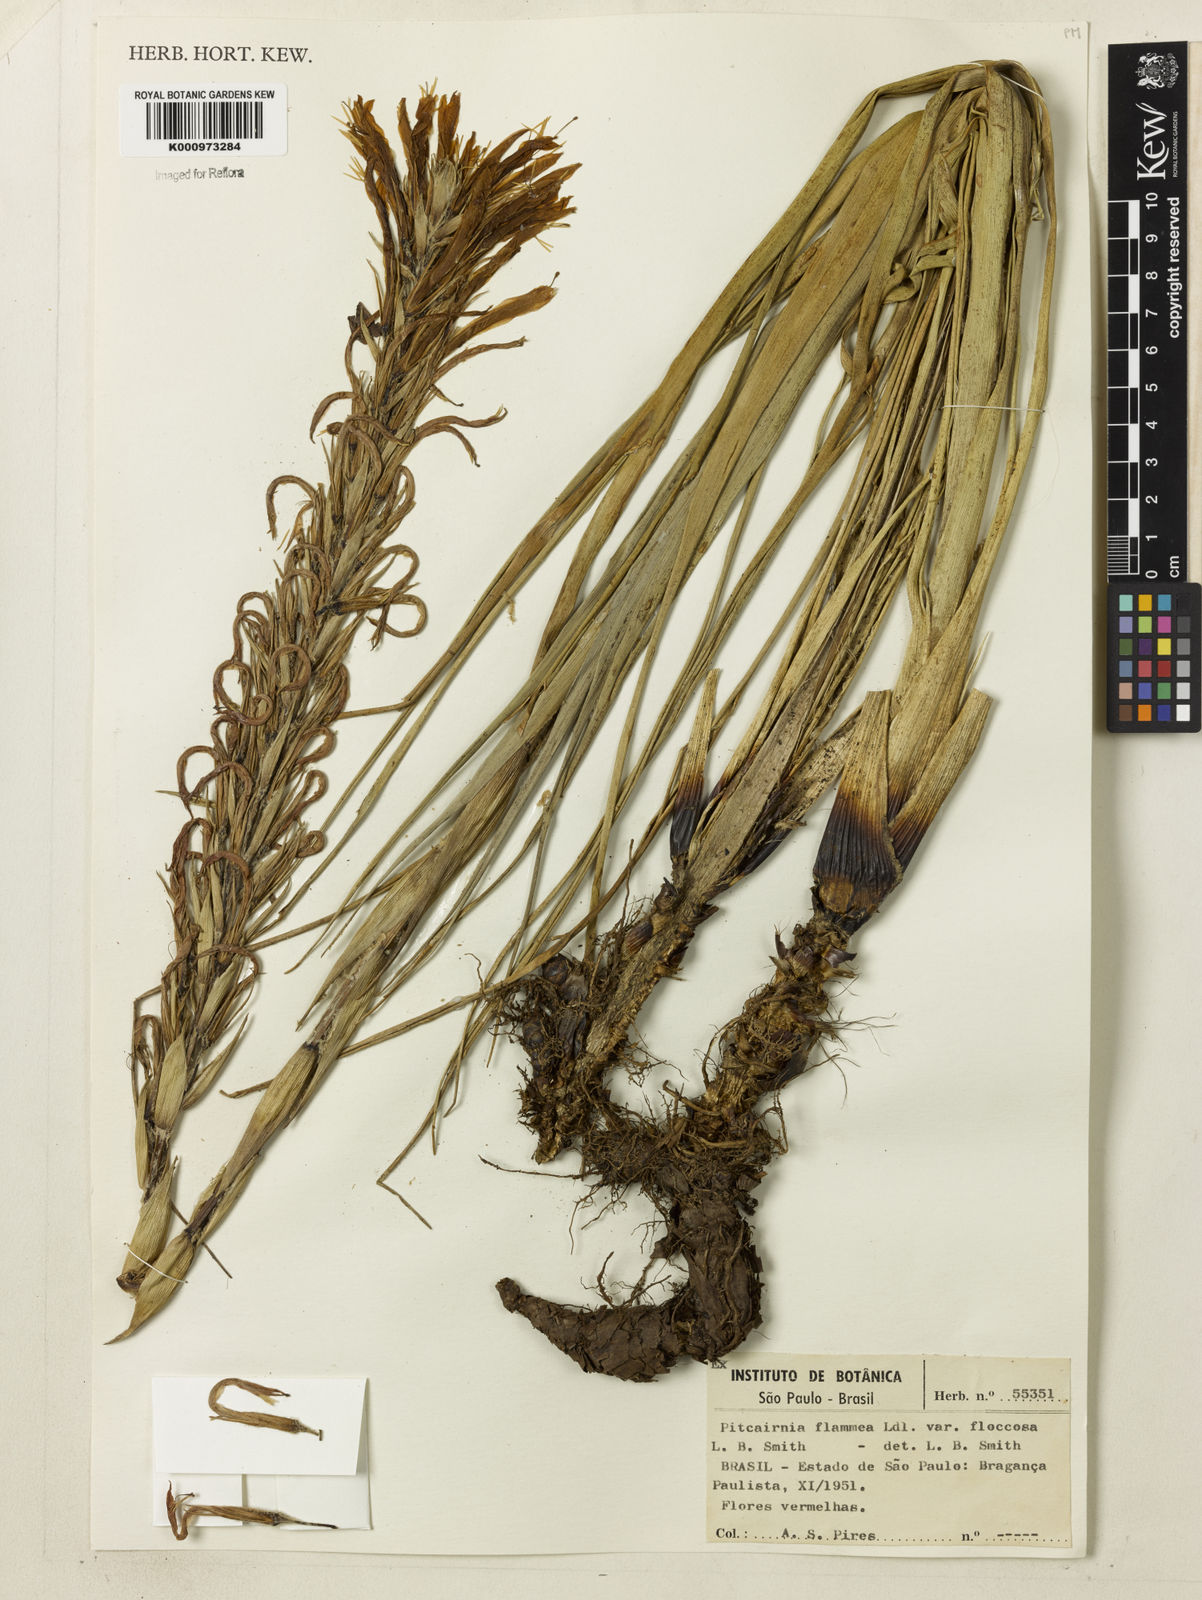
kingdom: Plantae
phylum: Tracheophyta
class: Liliopsida
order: Poales
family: Bromeliaceae
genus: Pitcairnia
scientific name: Pitcairnia flammea
